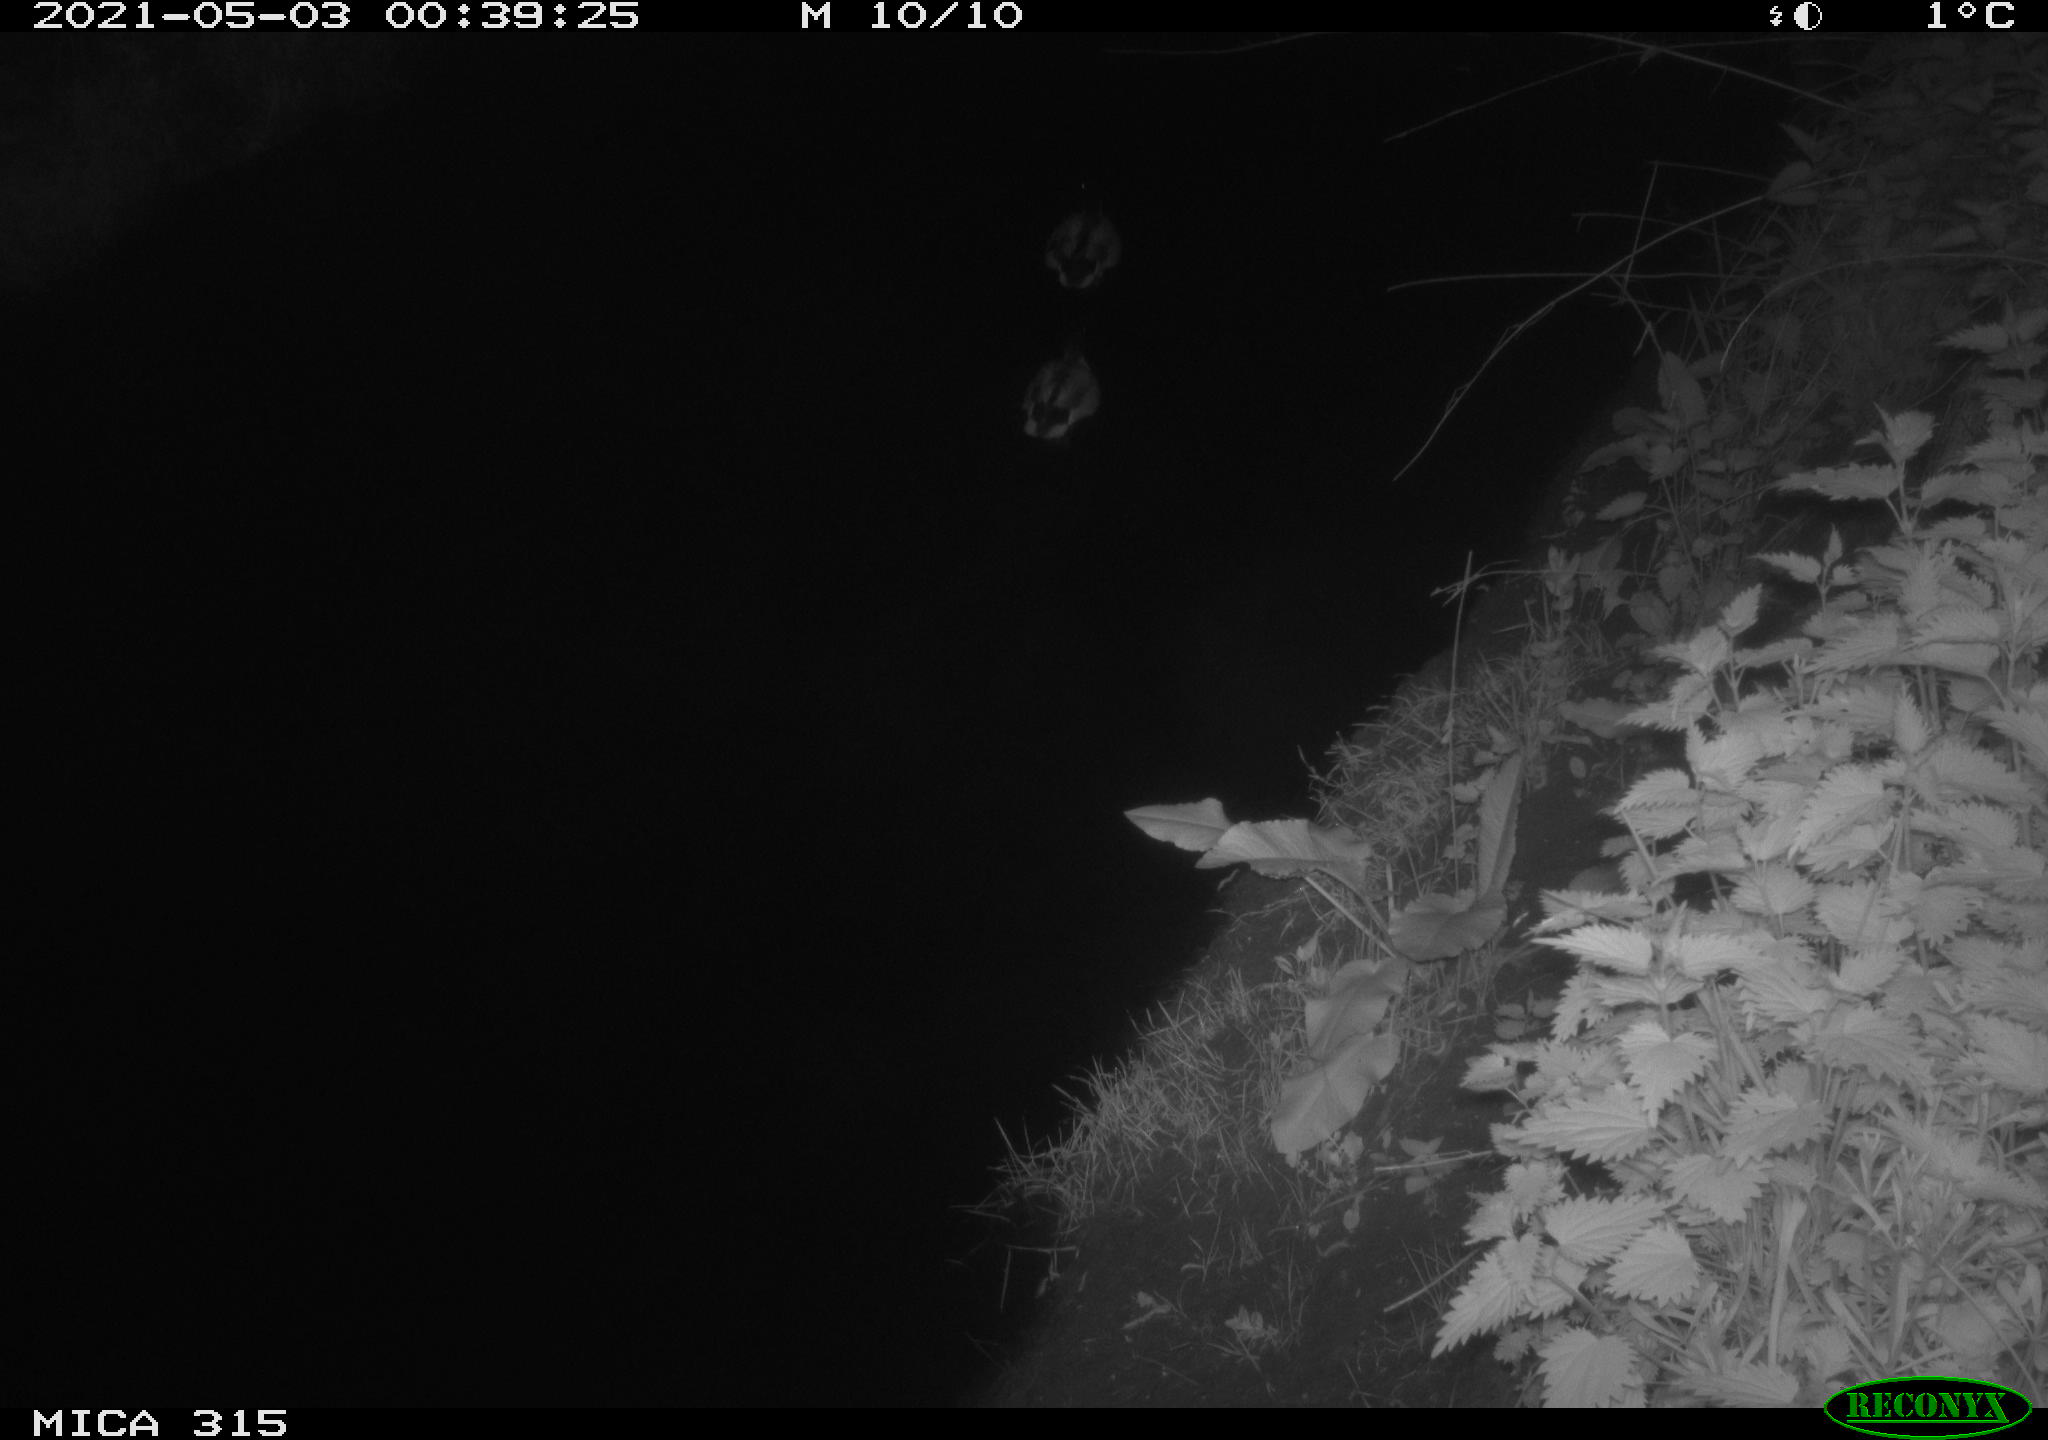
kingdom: Animalia
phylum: Chordata
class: Aves
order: Anseriformes
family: Anatidae
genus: Anas
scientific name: Anas
